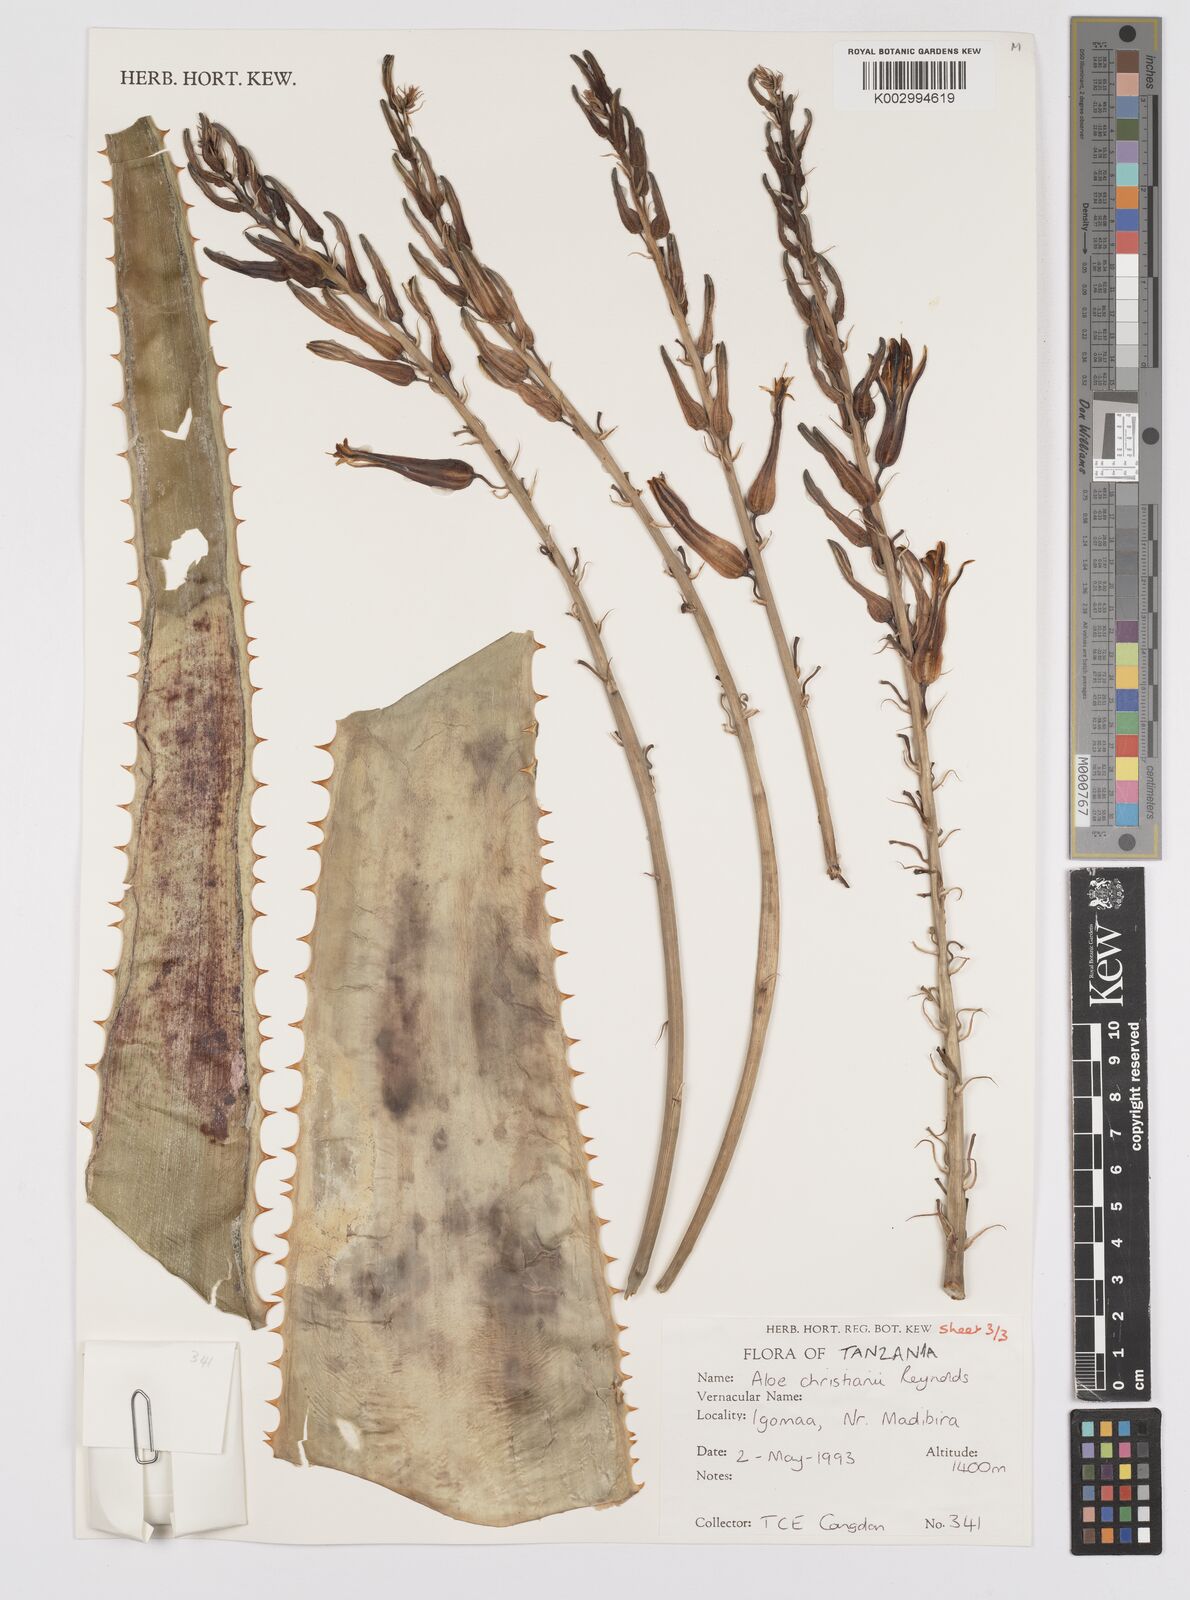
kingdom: Plantae
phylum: Tracheophyta
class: Liliopsida
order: Asparagales
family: Asphodelaceae
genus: Aloe
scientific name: Aloe christianii
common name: Basil christian's aloe
